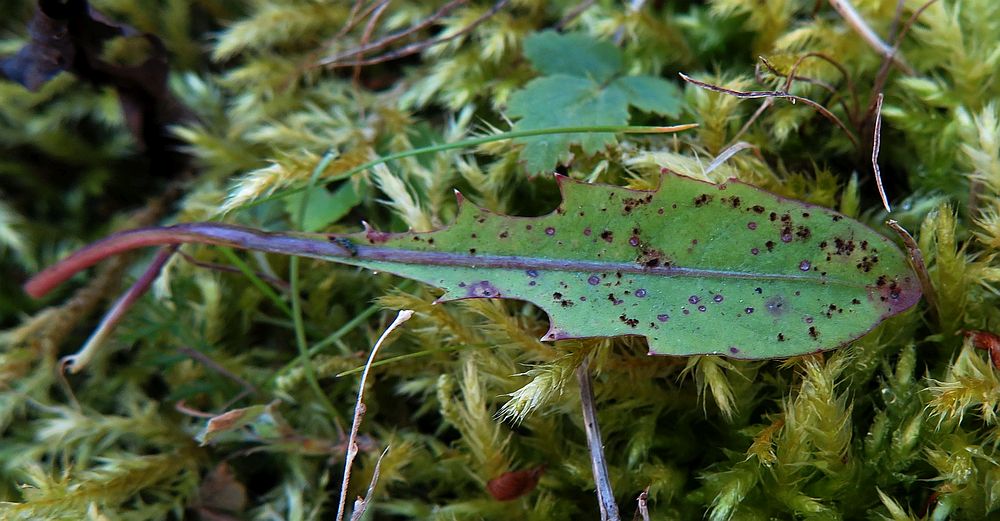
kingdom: Fungi
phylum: Basidiomycota
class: Pucciniomycetes
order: Pucciniales
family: Pucciniaceae
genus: Puccinia
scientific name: Puccinia variabilis
